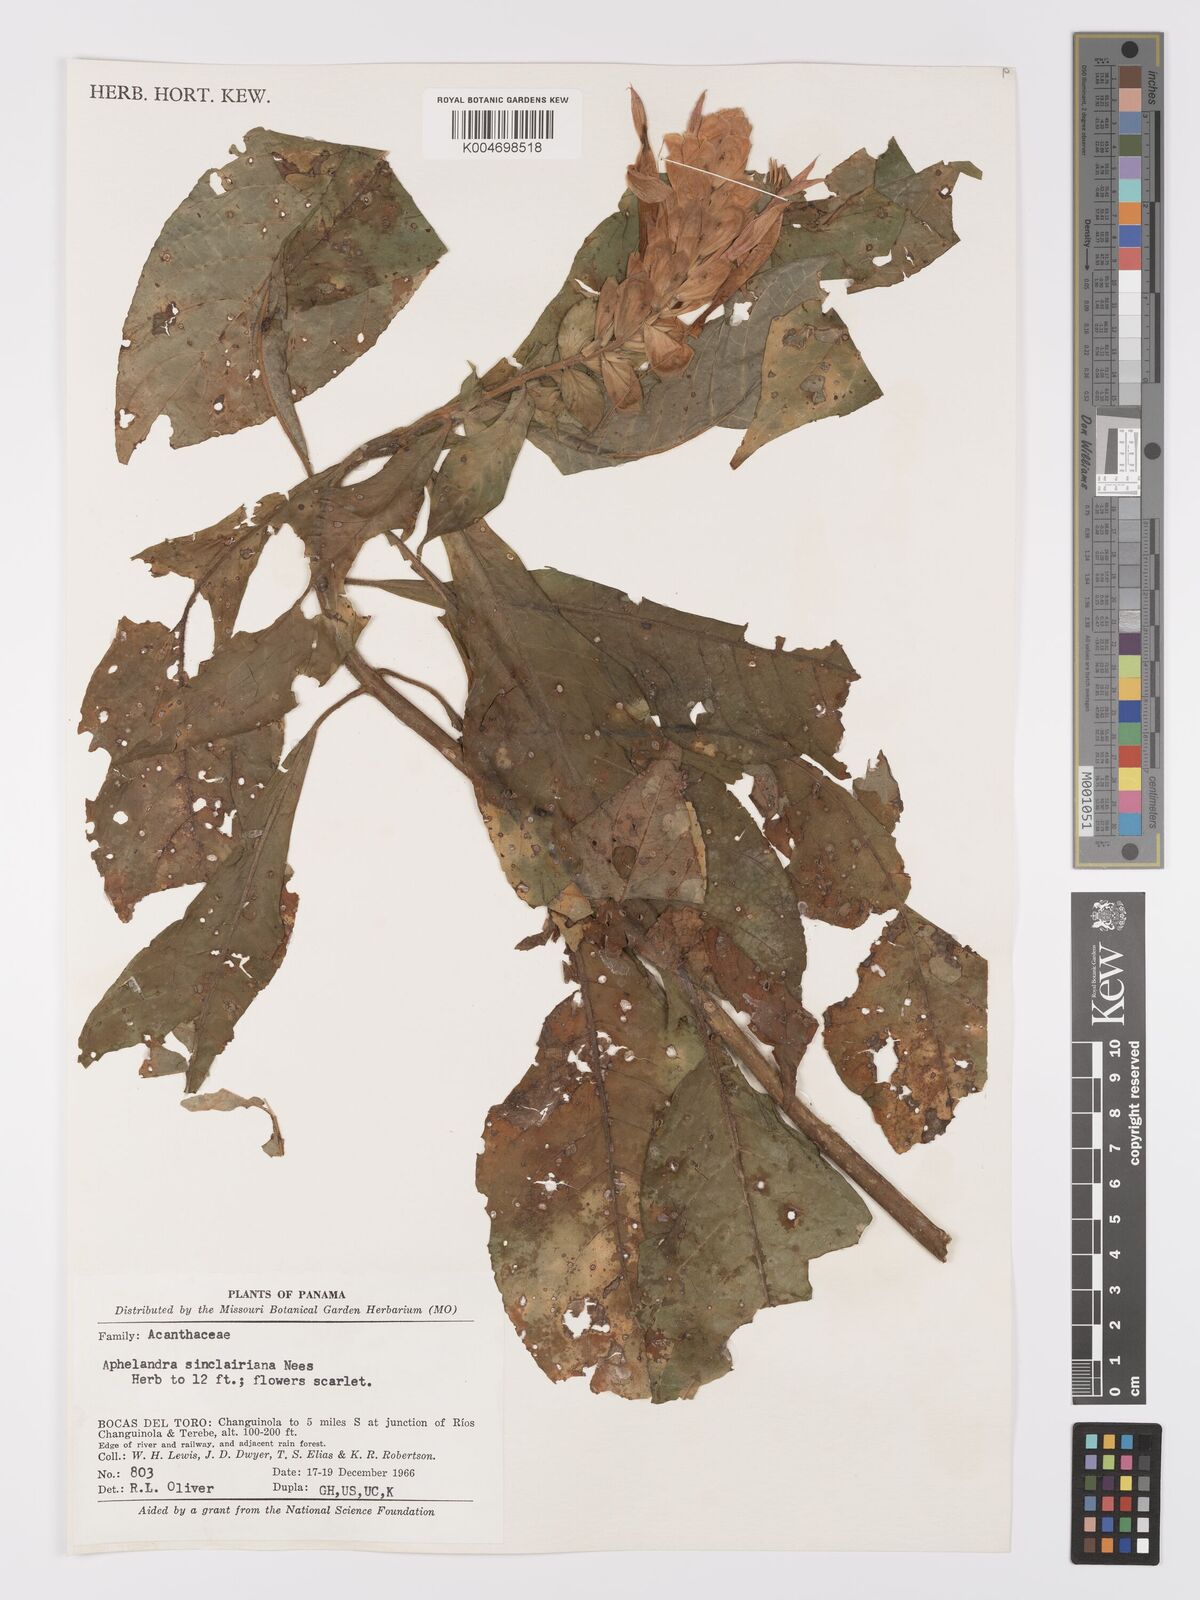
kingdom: Plantae
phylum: Tracheophyta
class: Magnoliopsida
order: Lamiales
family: Acanthaceae
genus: Aphelandra
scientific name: Aphelandra sinclairiana
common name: Coral aphelandra
